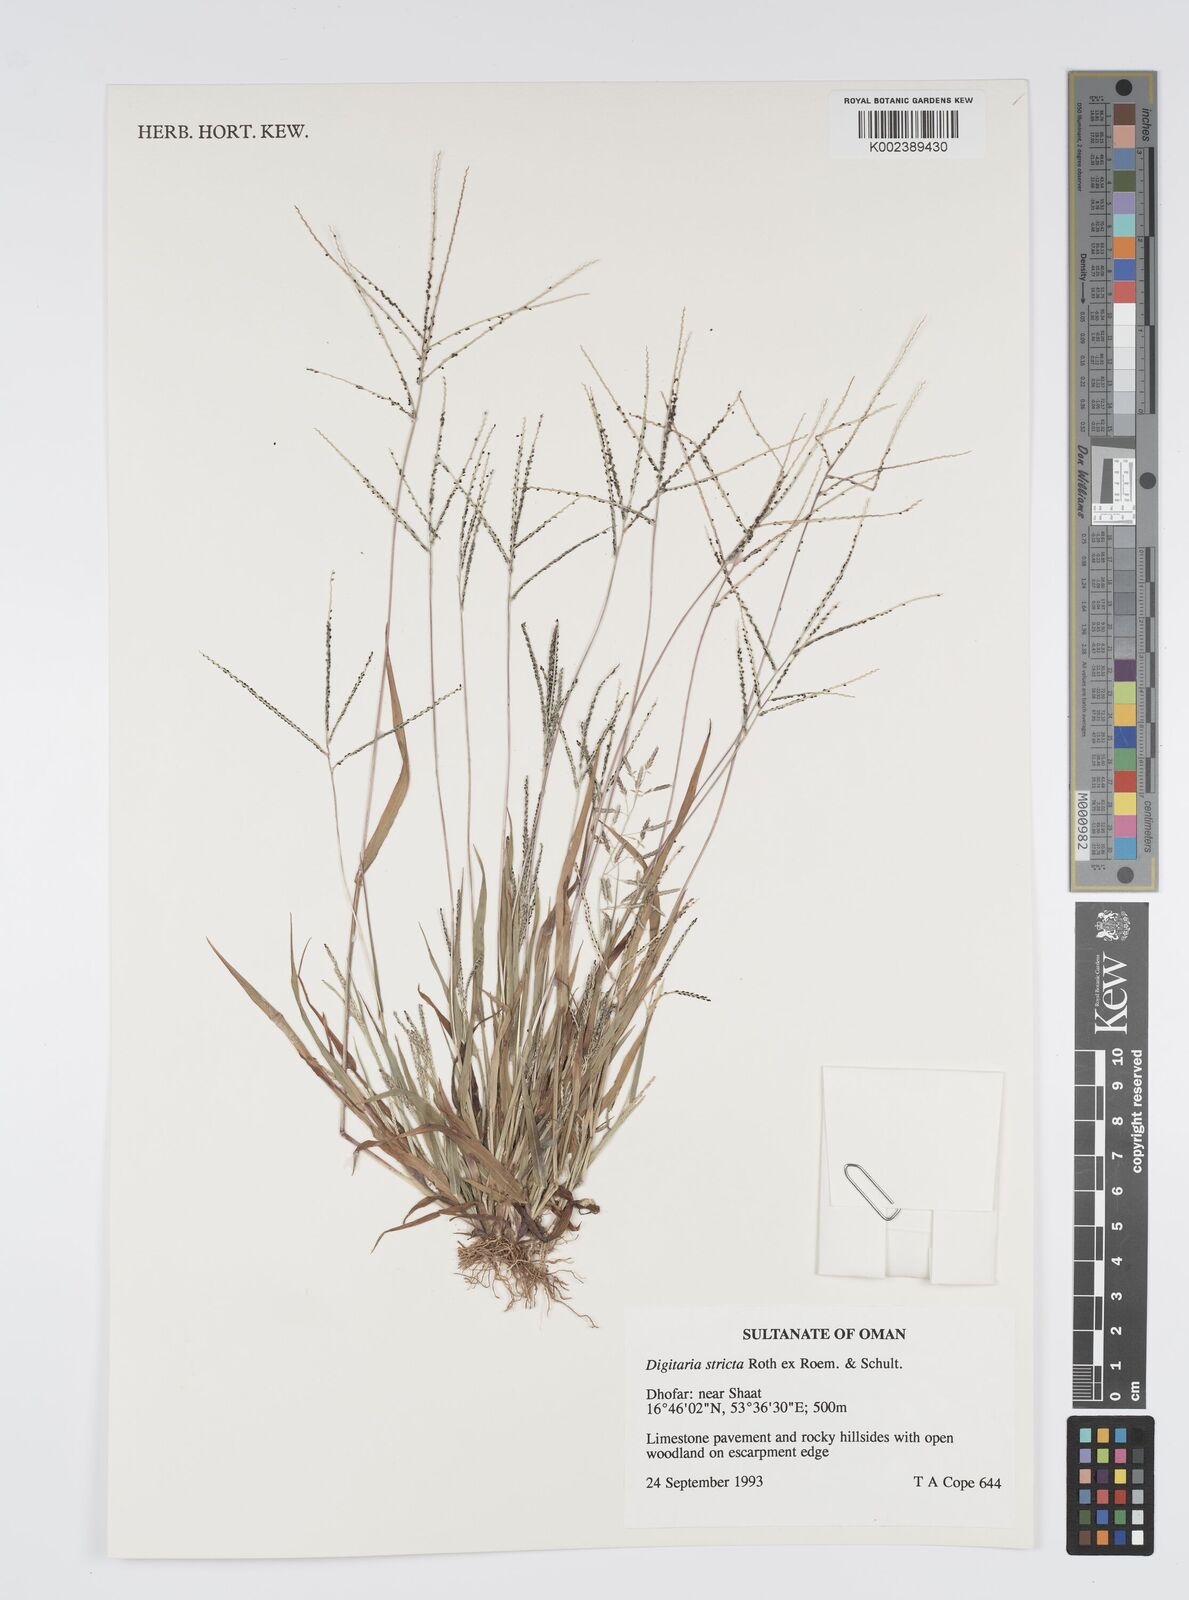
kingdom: Plantae
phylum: Tracheophyta
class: Liliopsida
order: Poales
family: Poaceae
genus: Digitaria
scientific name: Digitaria stricta
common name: Crabgrass
